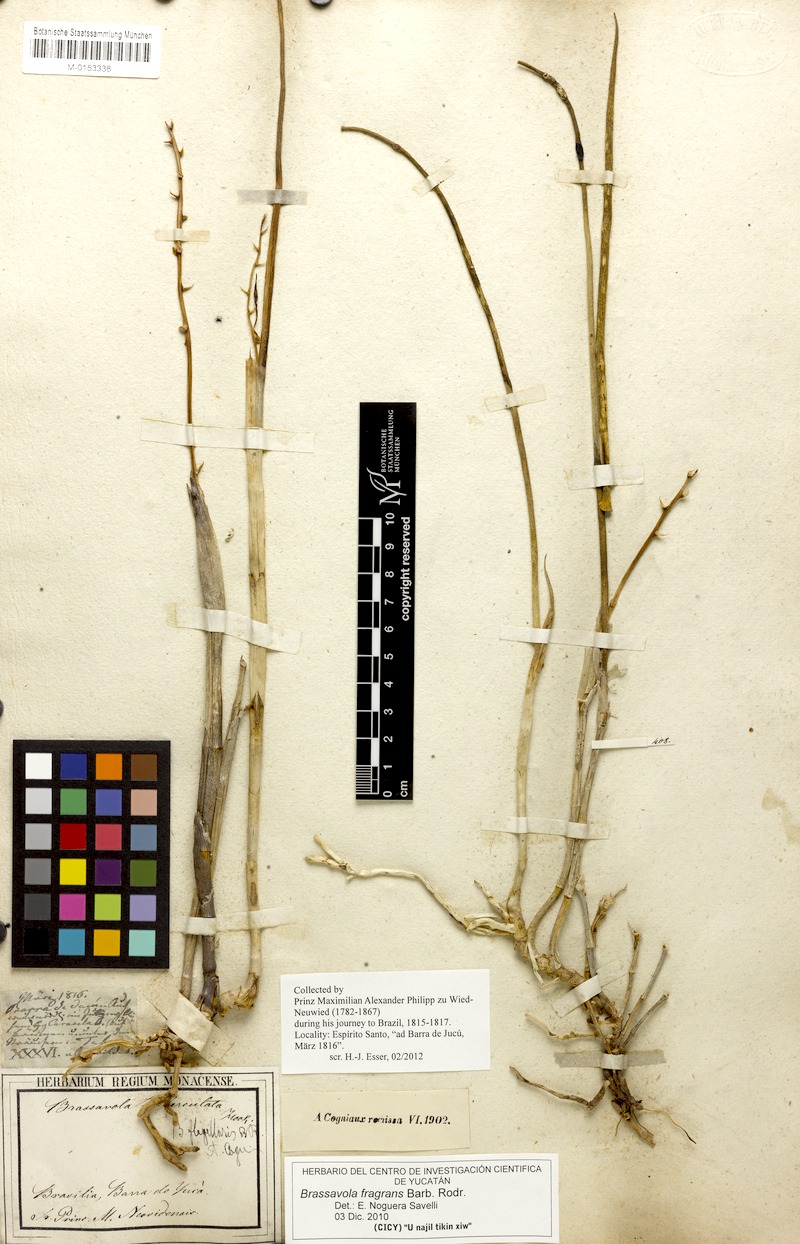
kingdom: Plantae
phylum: Tracheophyta
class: Liliopsida
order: Asparagales
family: Orchidaceae
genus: Brassavola
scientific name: Brassavola flagellaris
